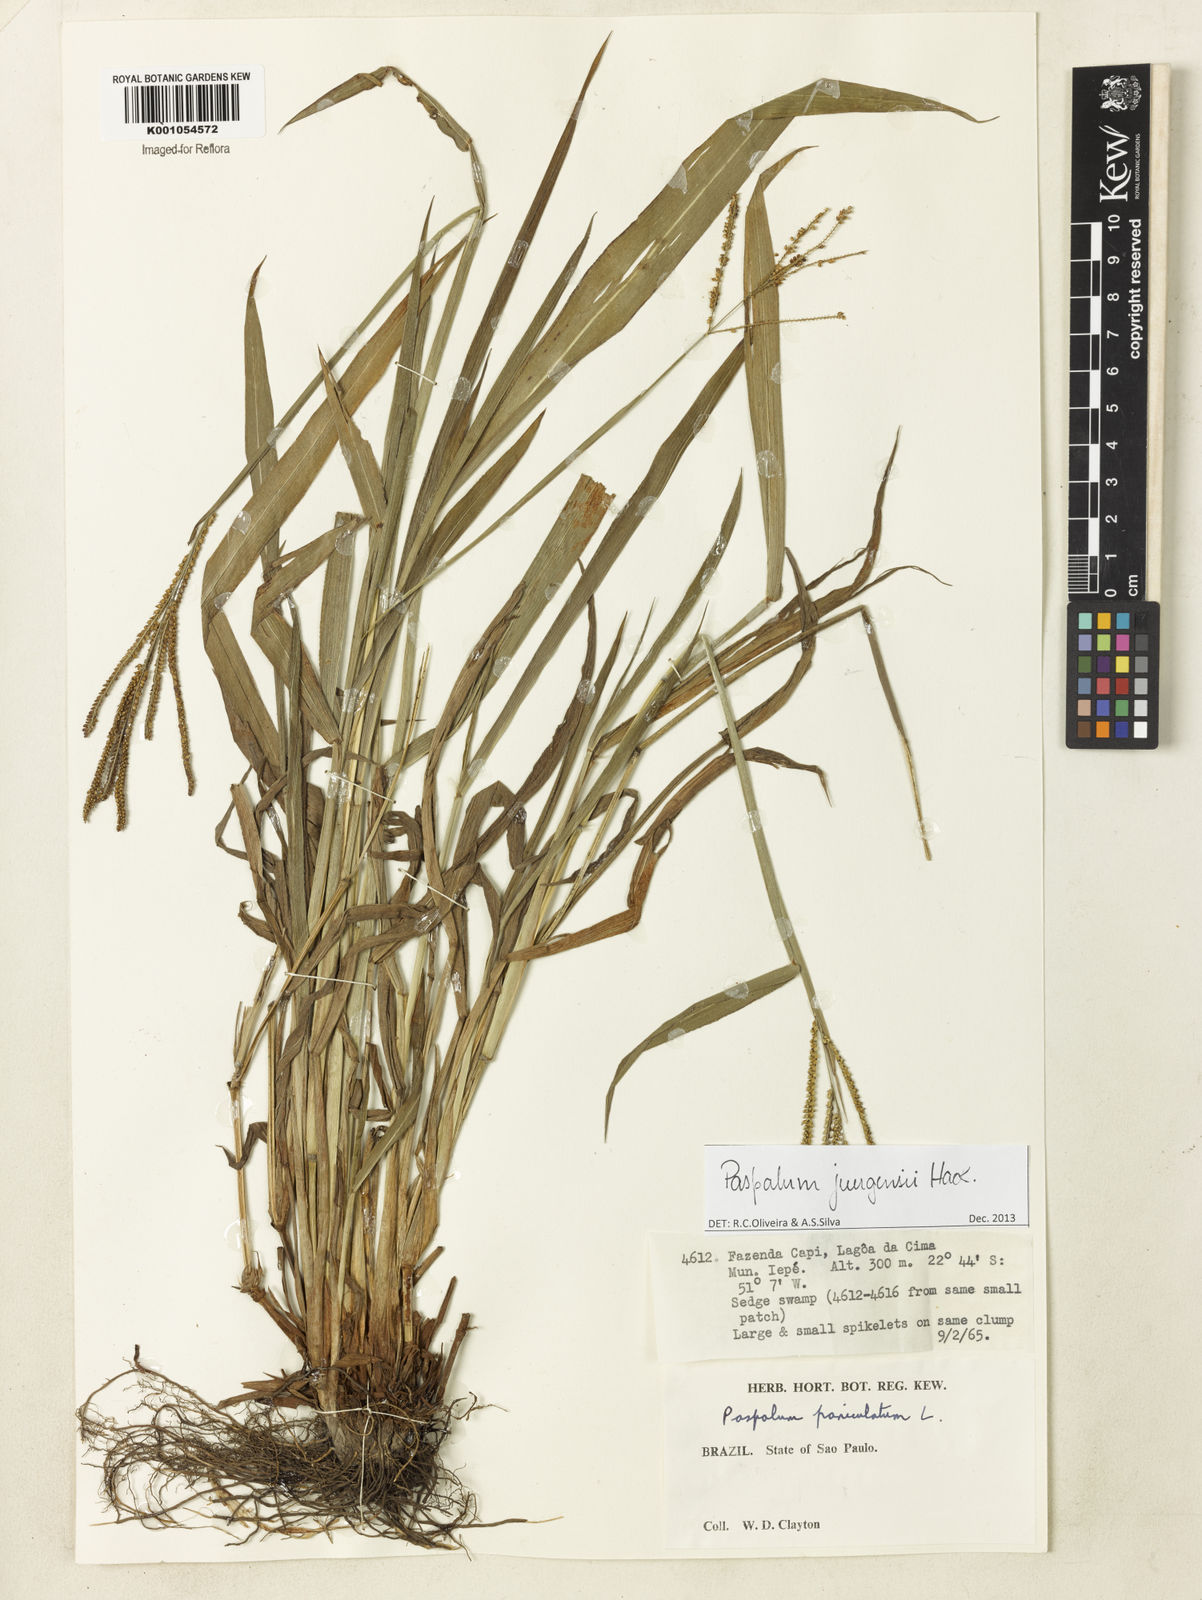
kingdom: Plantae
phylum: Tracheophyta
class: Liliopsida
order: Poales
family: Poaceae
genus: Paspalum
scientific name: Paspalum juergensii
